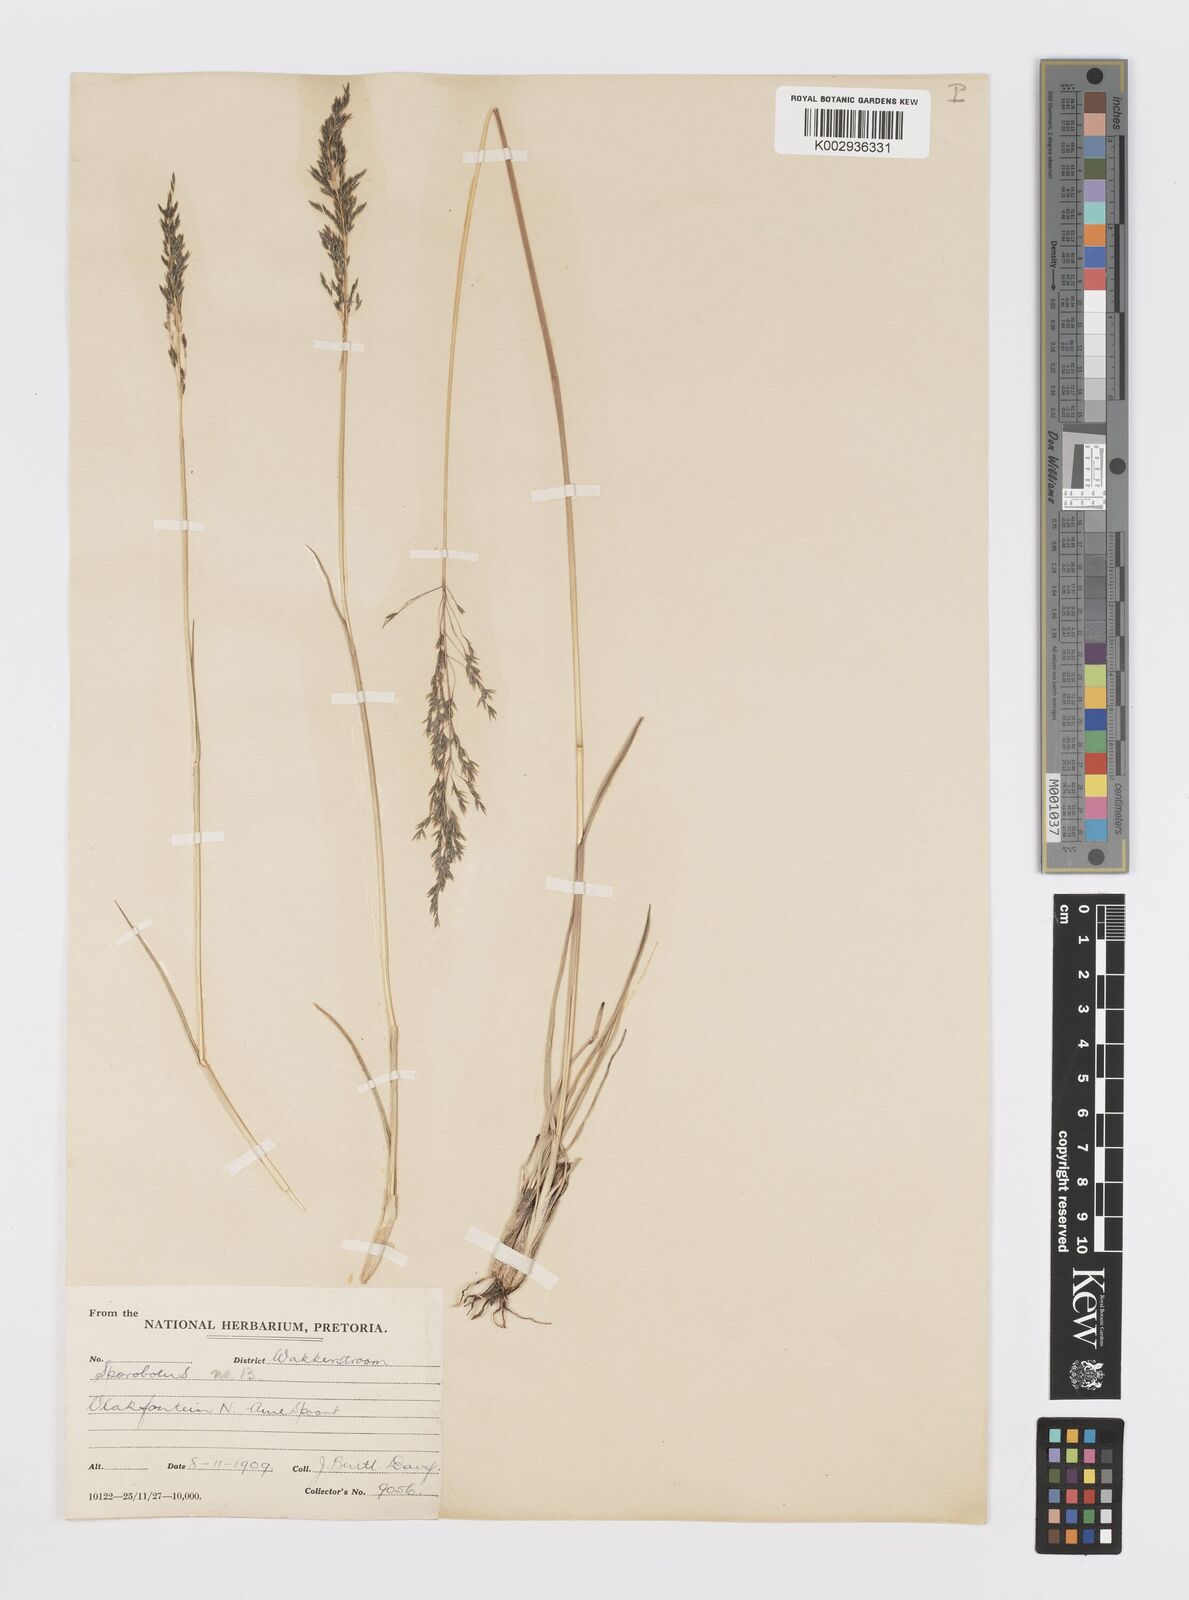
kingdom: Plantae
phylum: Tracheophyta
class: Liliopsida
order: Poales
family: Poaceae
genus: Sporobolus
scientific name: Sporobolus centrifugus
